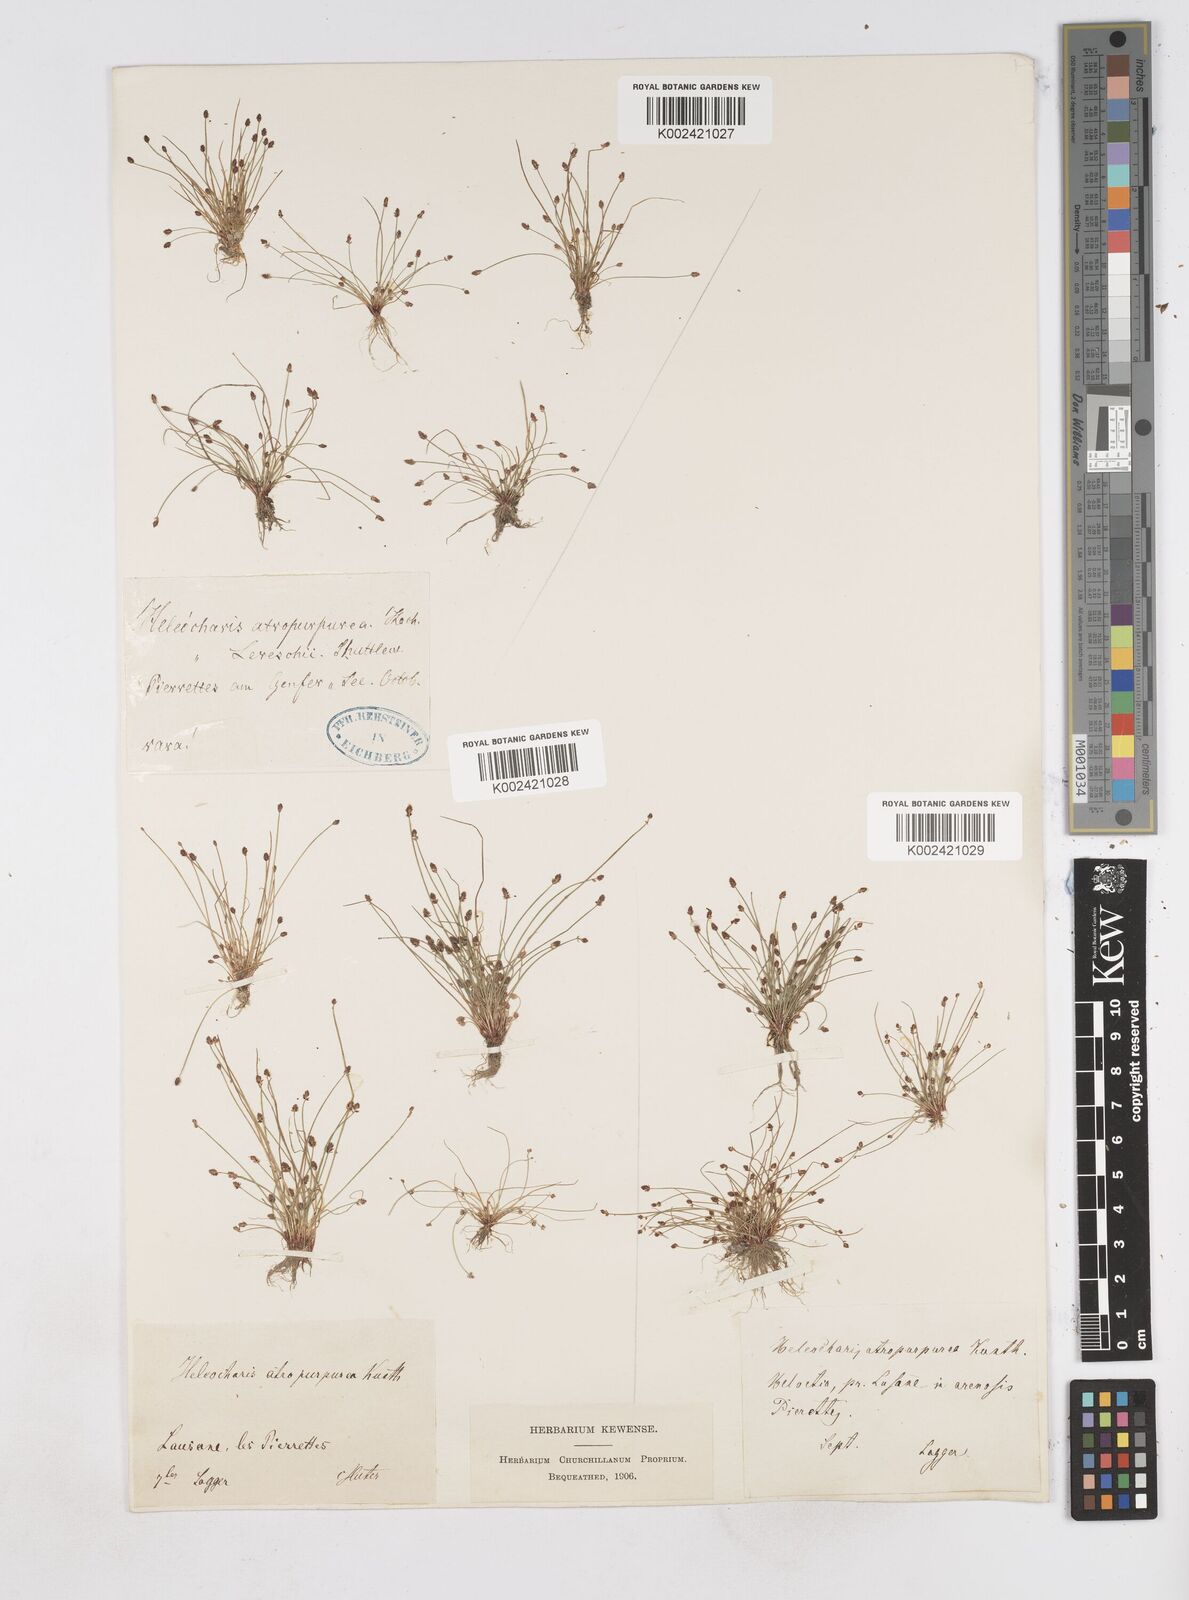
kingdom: Plantae
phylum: Tracheophyta
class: Liliopsida
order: Poales
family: Cyperaceae
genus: Eleocharis
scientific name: Eleocharis atropurpurea
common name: Purple spikerush
